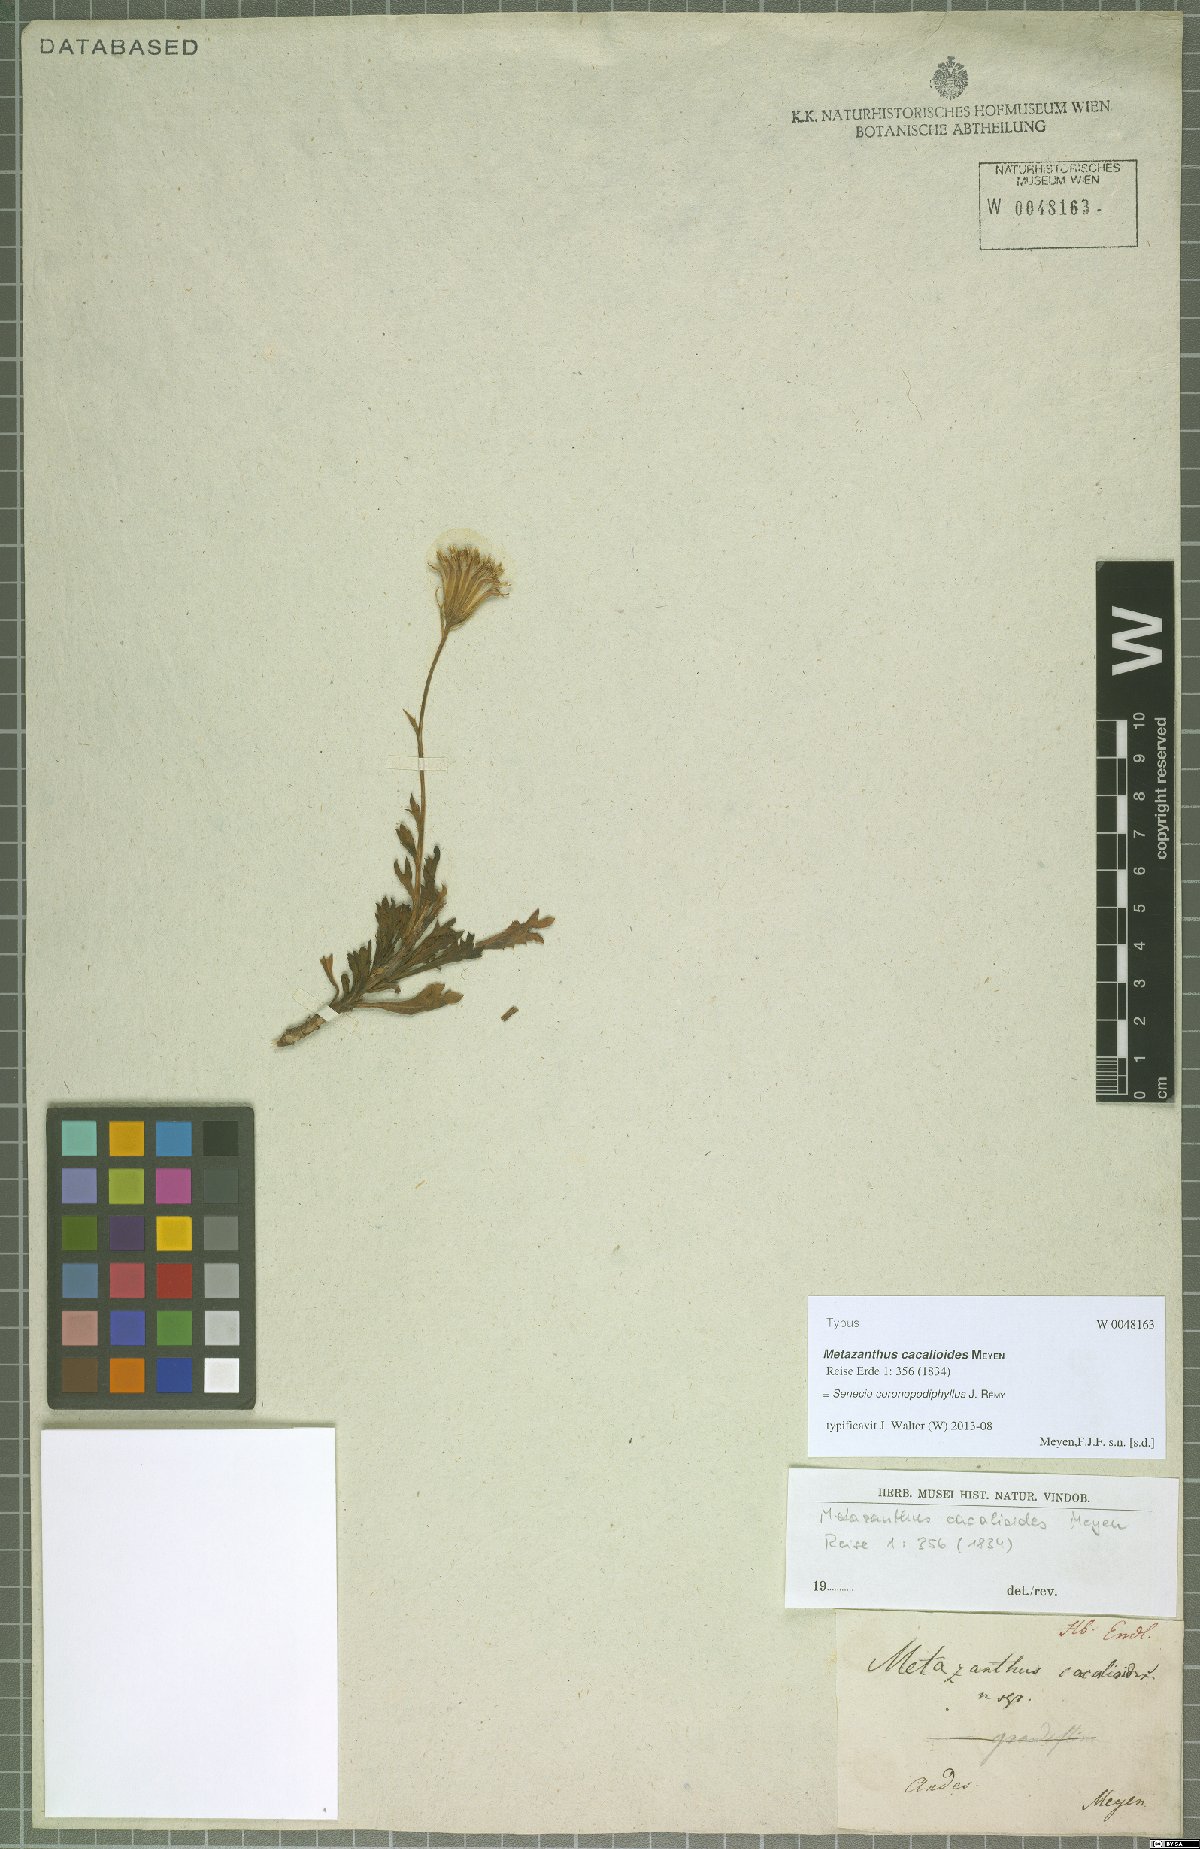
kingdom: Plantae
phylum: Tracheophyta
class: Magnoliopsida
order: Asterales
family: Asteraceae
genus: Senecio
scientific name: Senecio coronopodiphyllus
